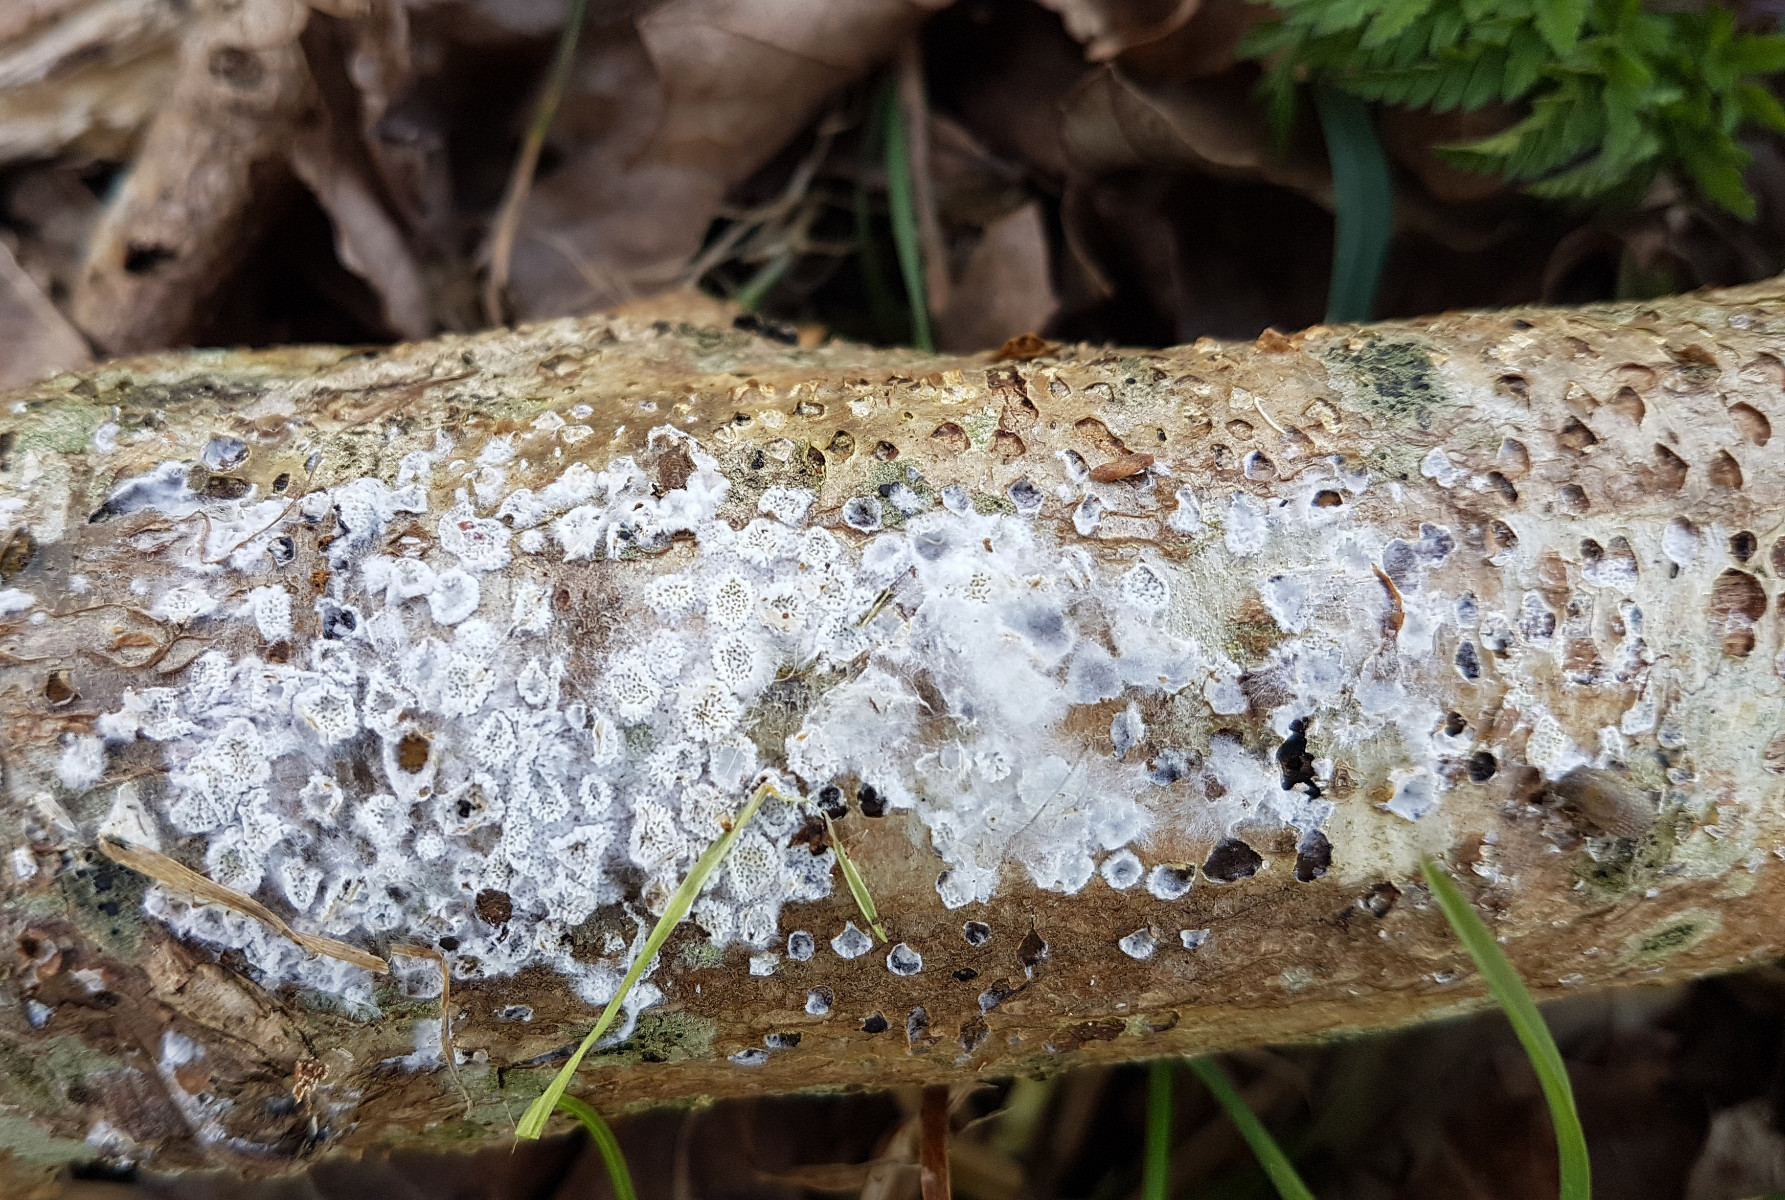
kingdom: Fungi
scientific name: Fungi
